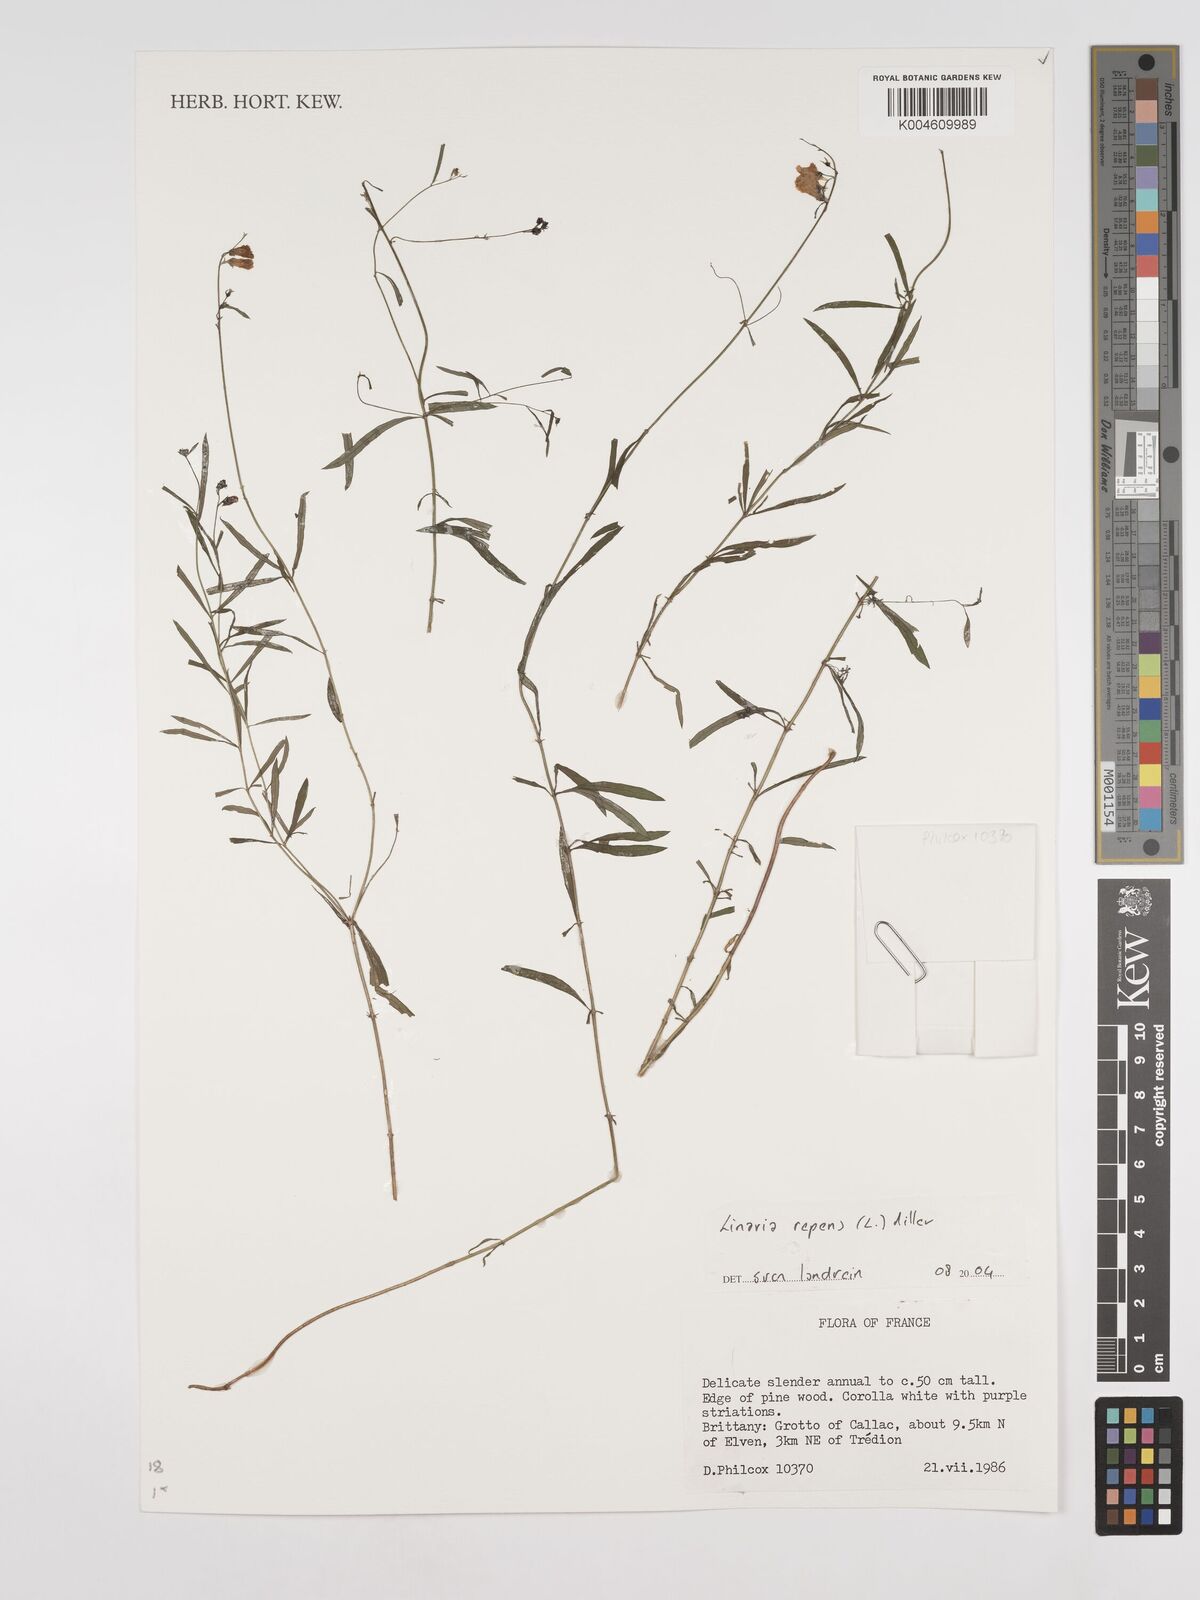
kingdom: Plantae
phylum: Tracheophyta
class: Magnoliopsida
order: Lamiales
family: Plantaginaceae
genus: Linaria
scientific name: Linaria repens
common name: Pale toadflax
